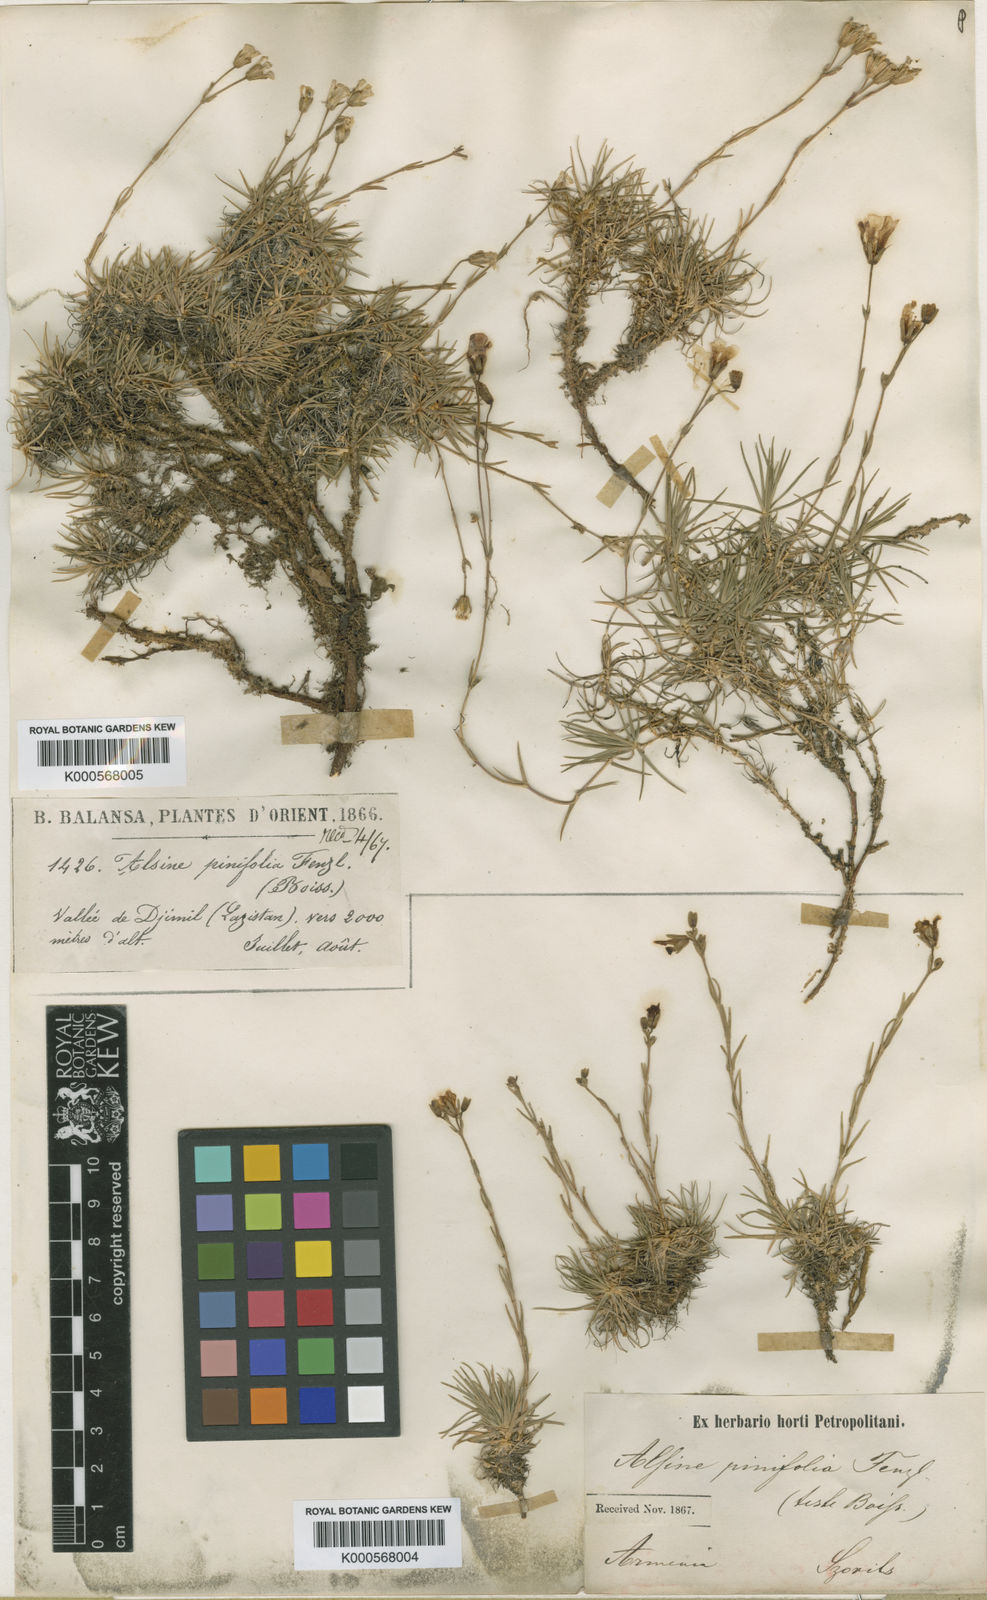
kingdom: Plantae
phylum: Tracheophyta
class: Magnoliopsida
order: Caryophyllales
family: Caryophyllaceae
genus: Cherleria
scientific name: Cherleria circassica
